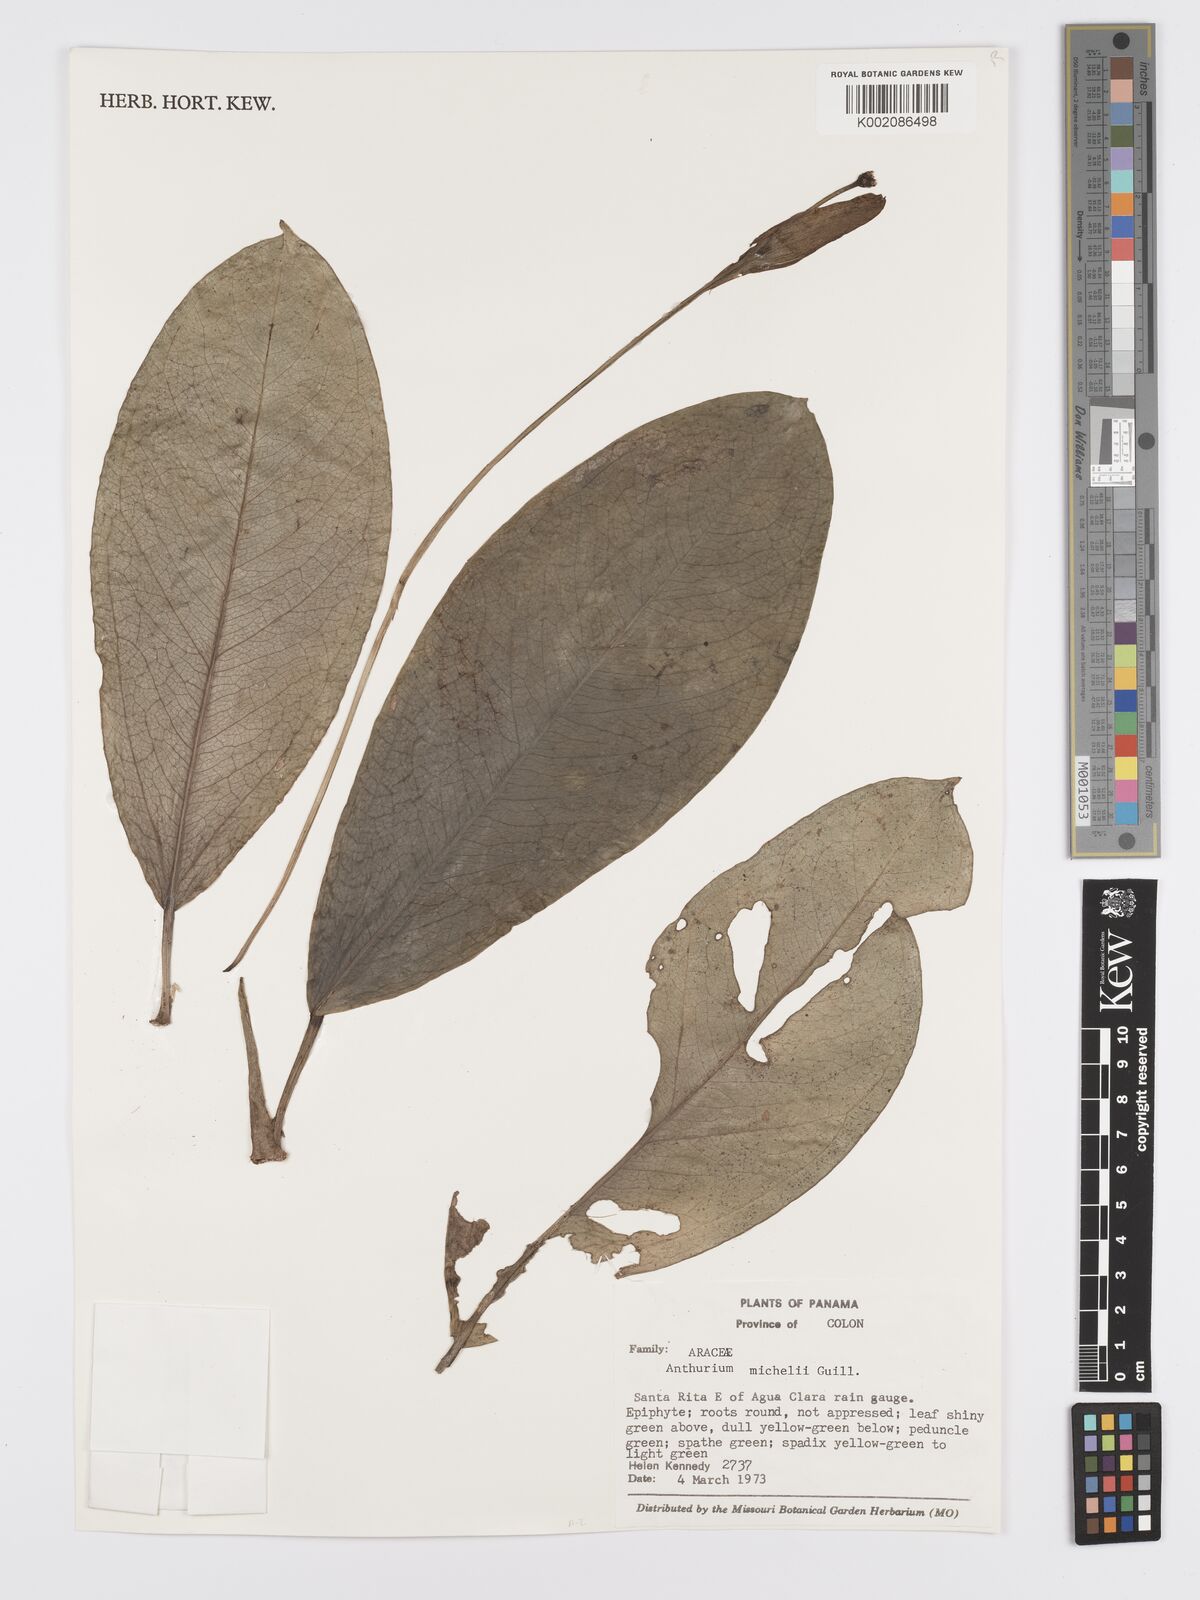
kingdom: Plantae
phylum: Tracheophyta
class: Liliopsida
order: Alismatales
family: Araceae
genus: Anthurium
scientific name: Anthurium michelii
